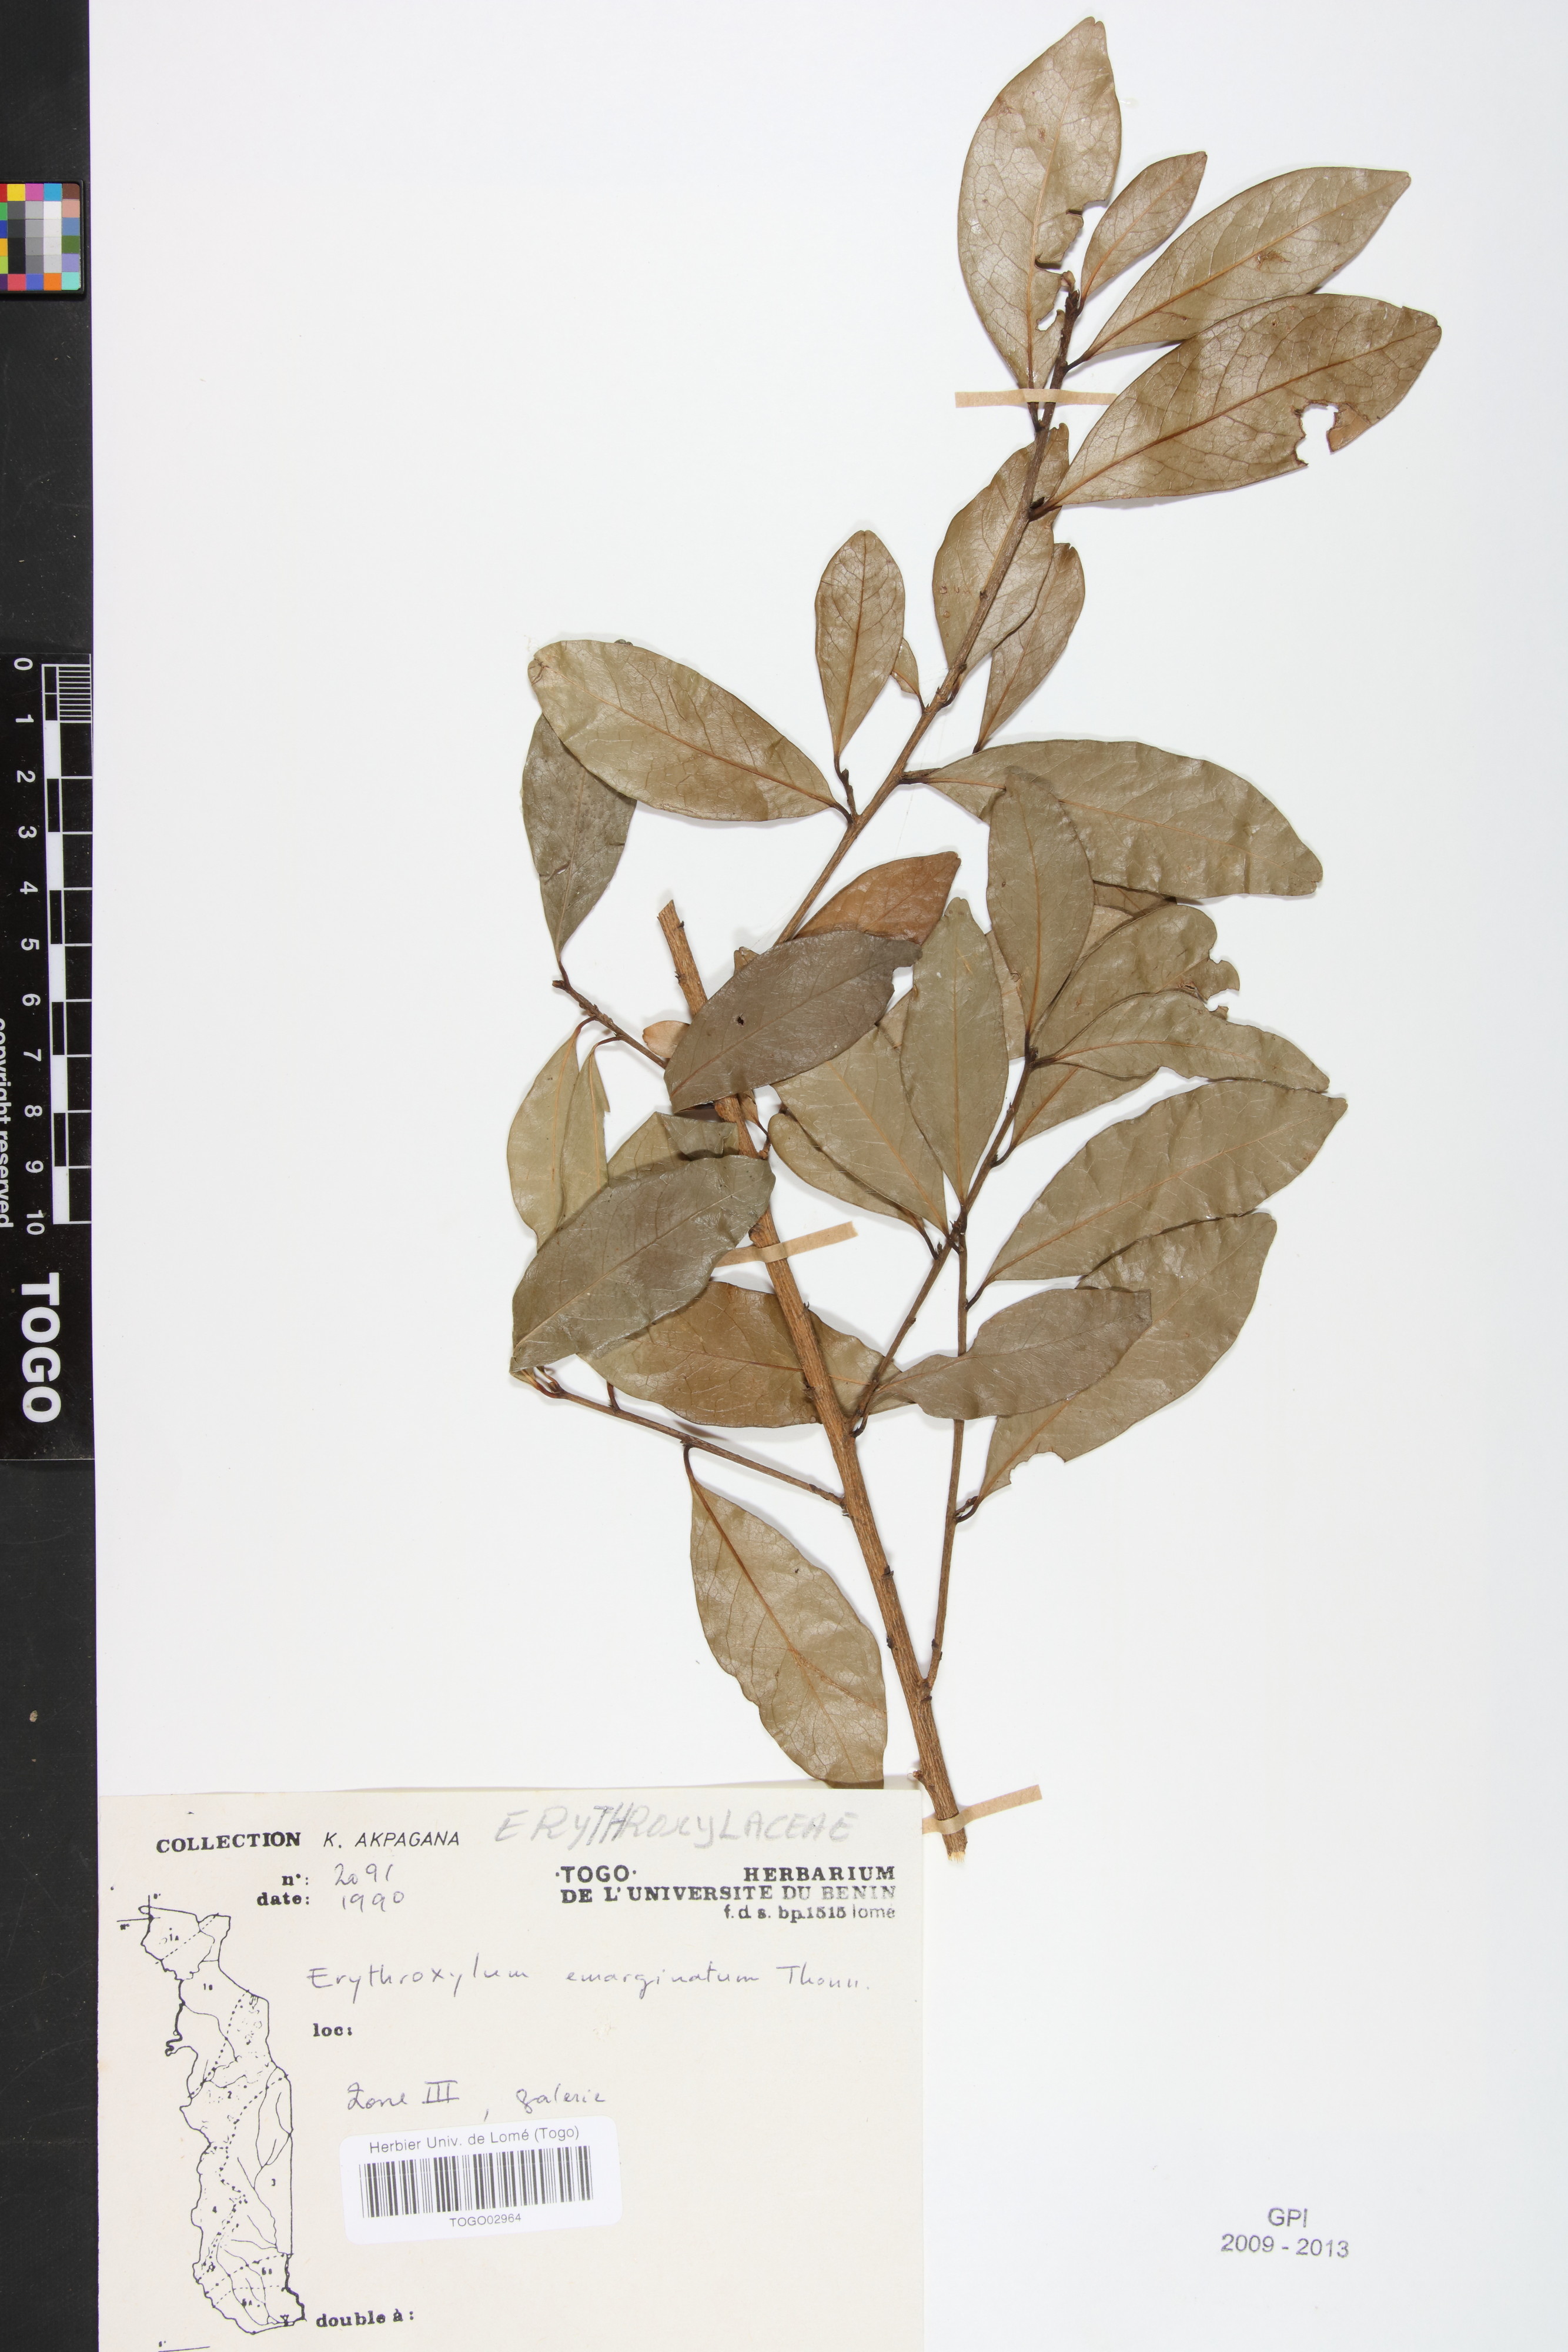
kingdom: Plantae
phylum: Tracheophyta
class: Magnoliopsida
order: Malpighiales
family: Erythroxylaceae
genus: Erythroxylum
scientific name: Erythroxylum emarginatum
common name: African coca-tree
